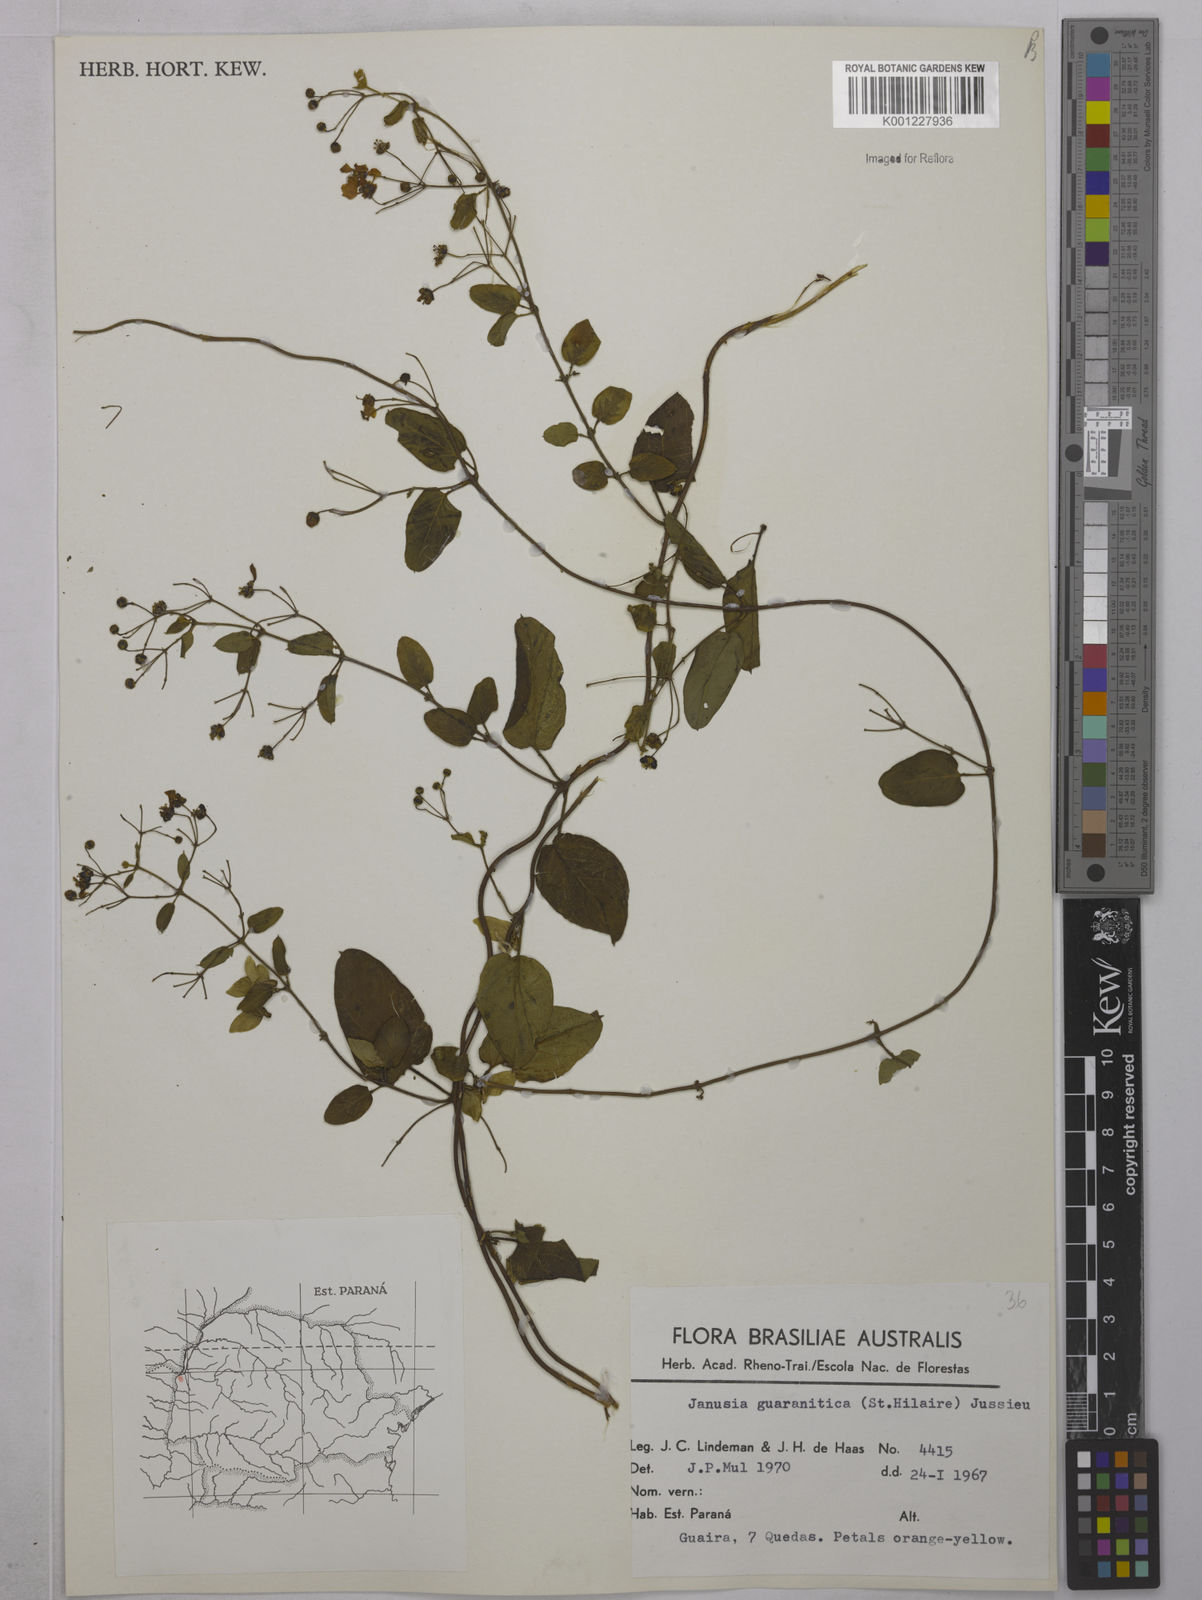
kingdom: Plantae
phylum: Tracheophyta
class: Magnoliopsida
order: Malpighiales
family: Malpighiaceae
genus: Janusia
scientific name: Janusia guaranitica
